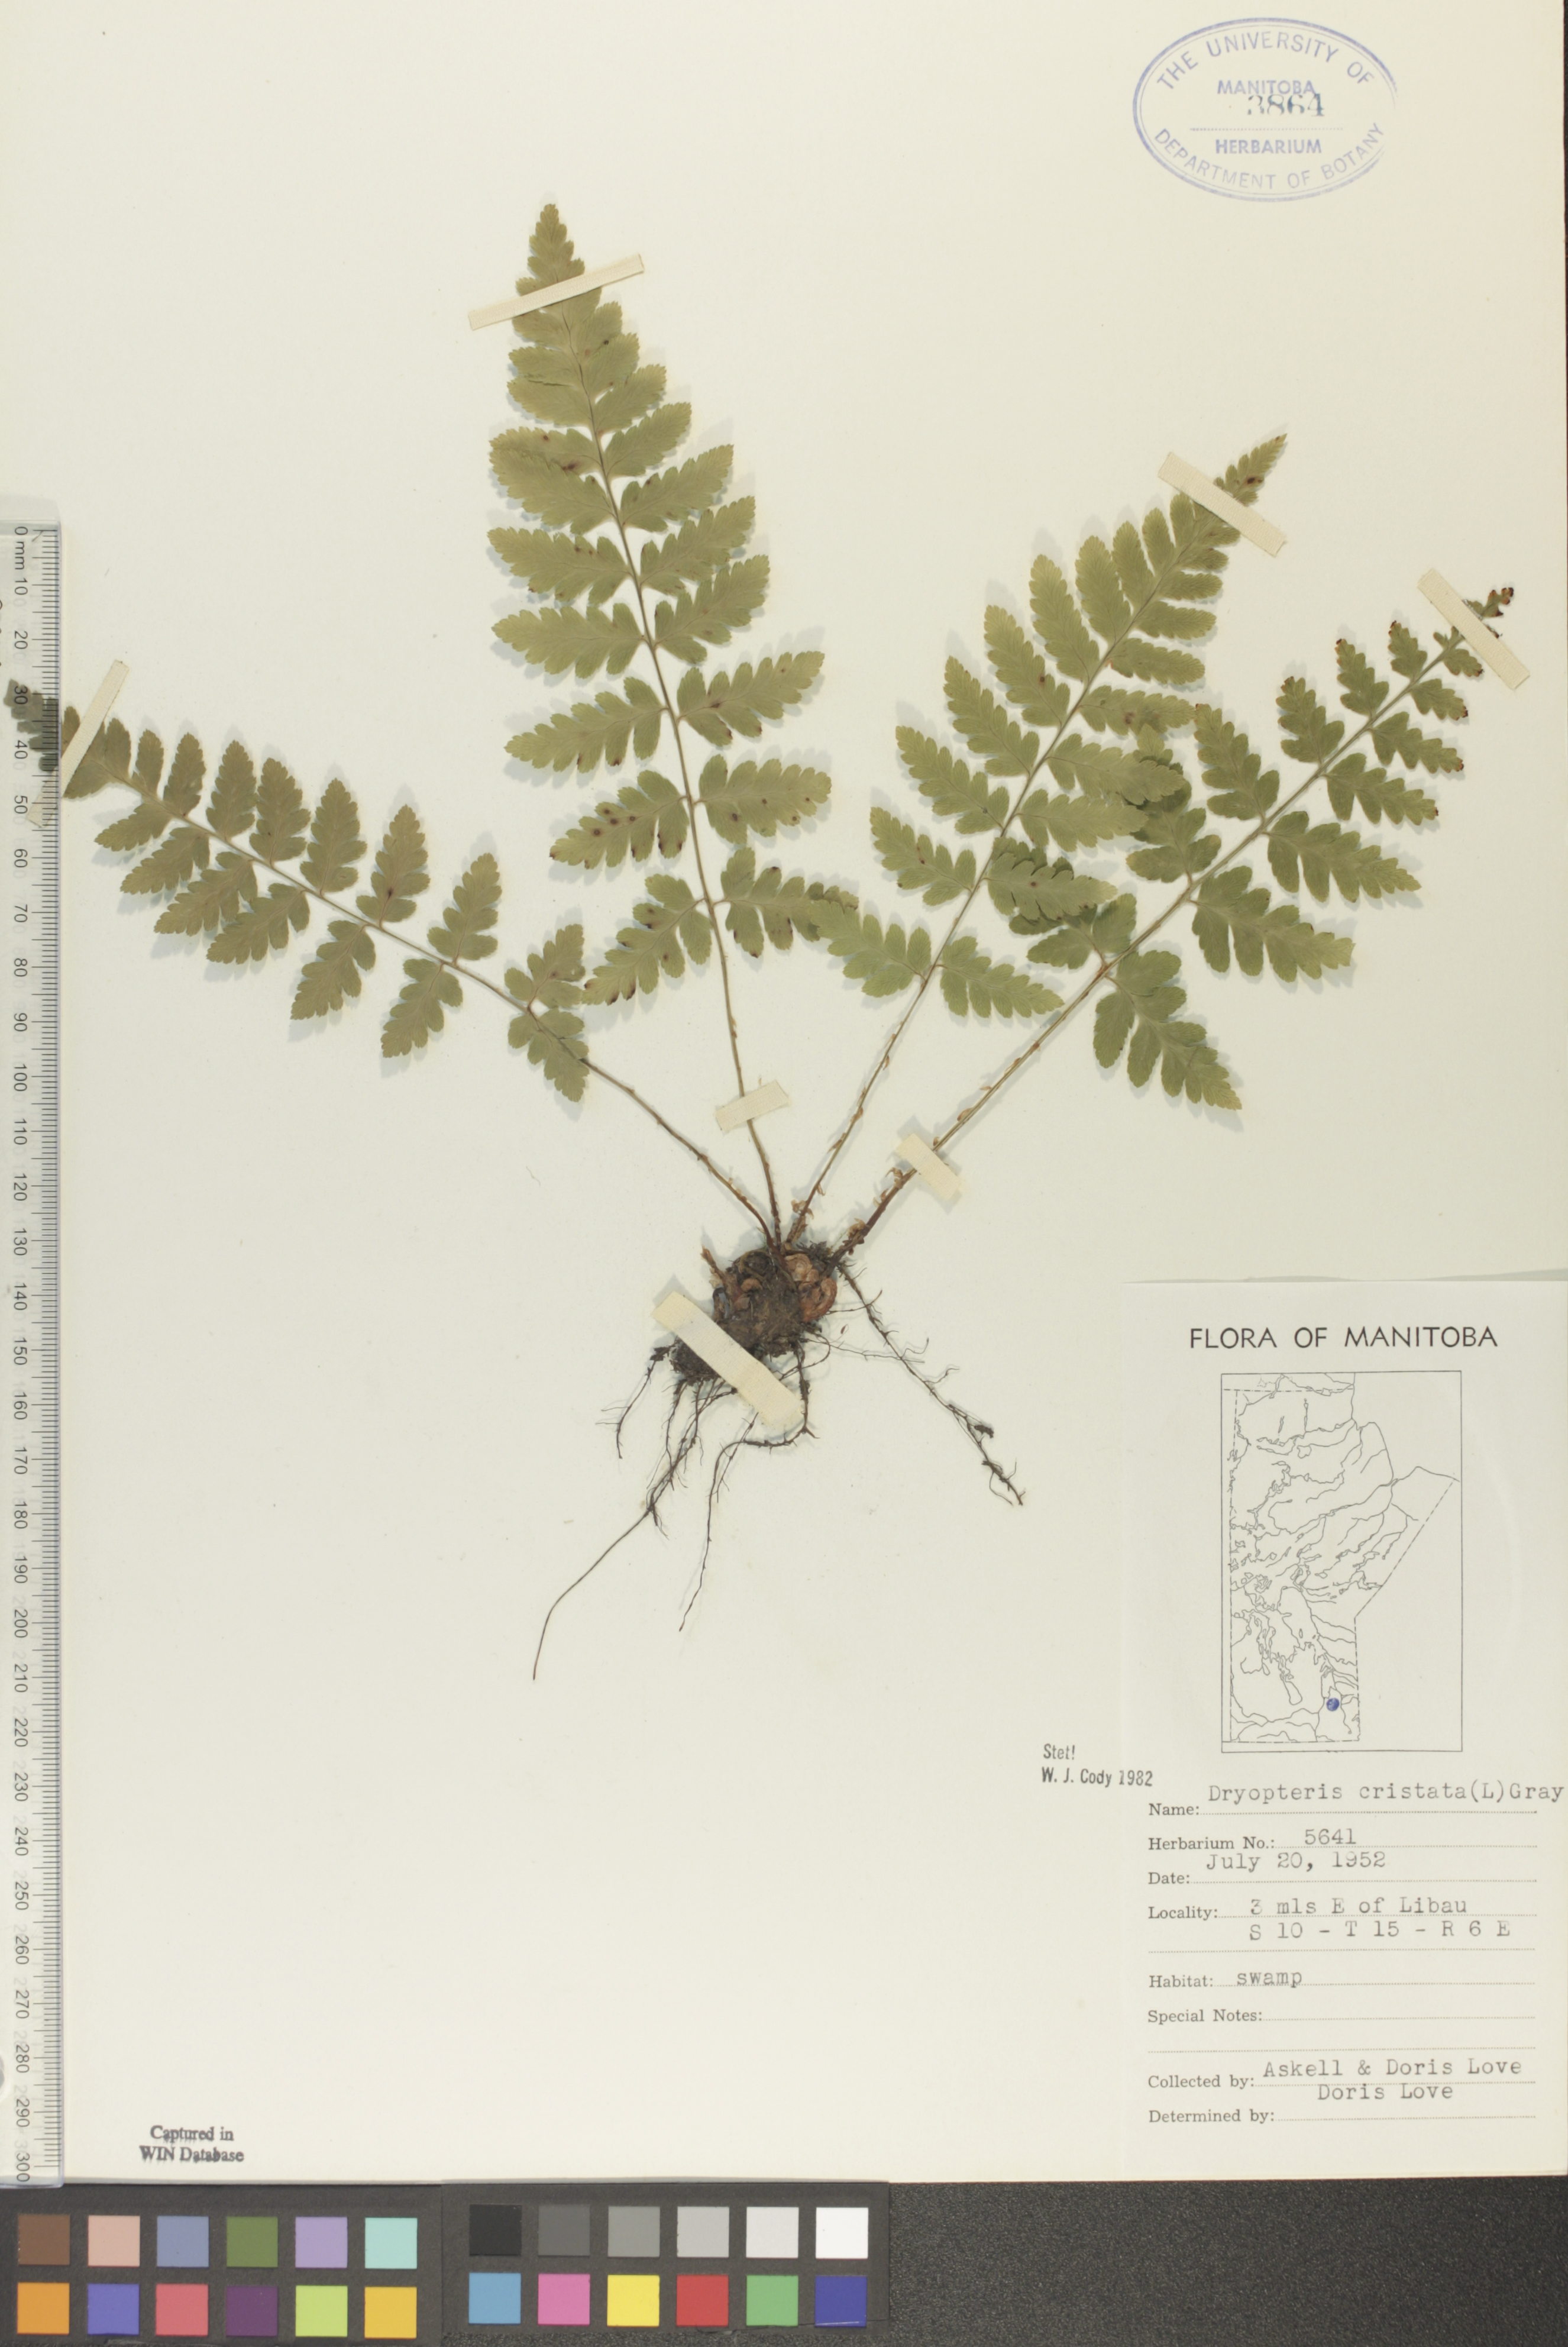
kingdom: Plantae
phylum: Tracheophyta
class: Polypodiopsida
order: Polypodiales
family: Dryopteridaceae
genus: Dryopteris
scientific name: Dryopteris cristata
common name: Crested wood fern
